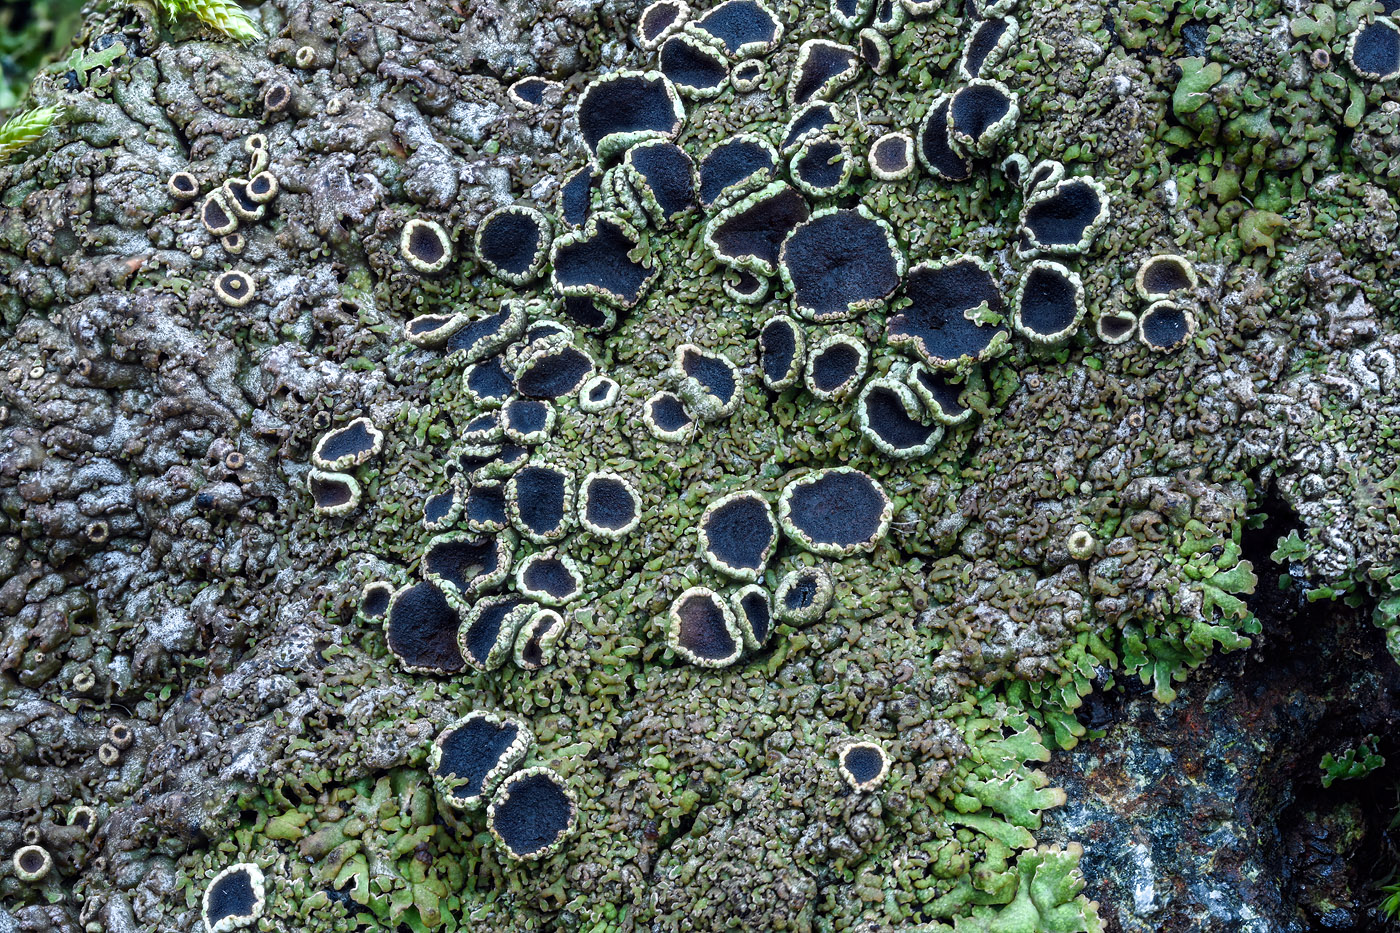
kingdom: Fungi
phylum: Ascomycota
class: Lecanoromycetes
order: Caliciales
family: Physciaceae
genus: Kurokawia
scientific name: Kurokawia runcinata
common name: brun frynselav
